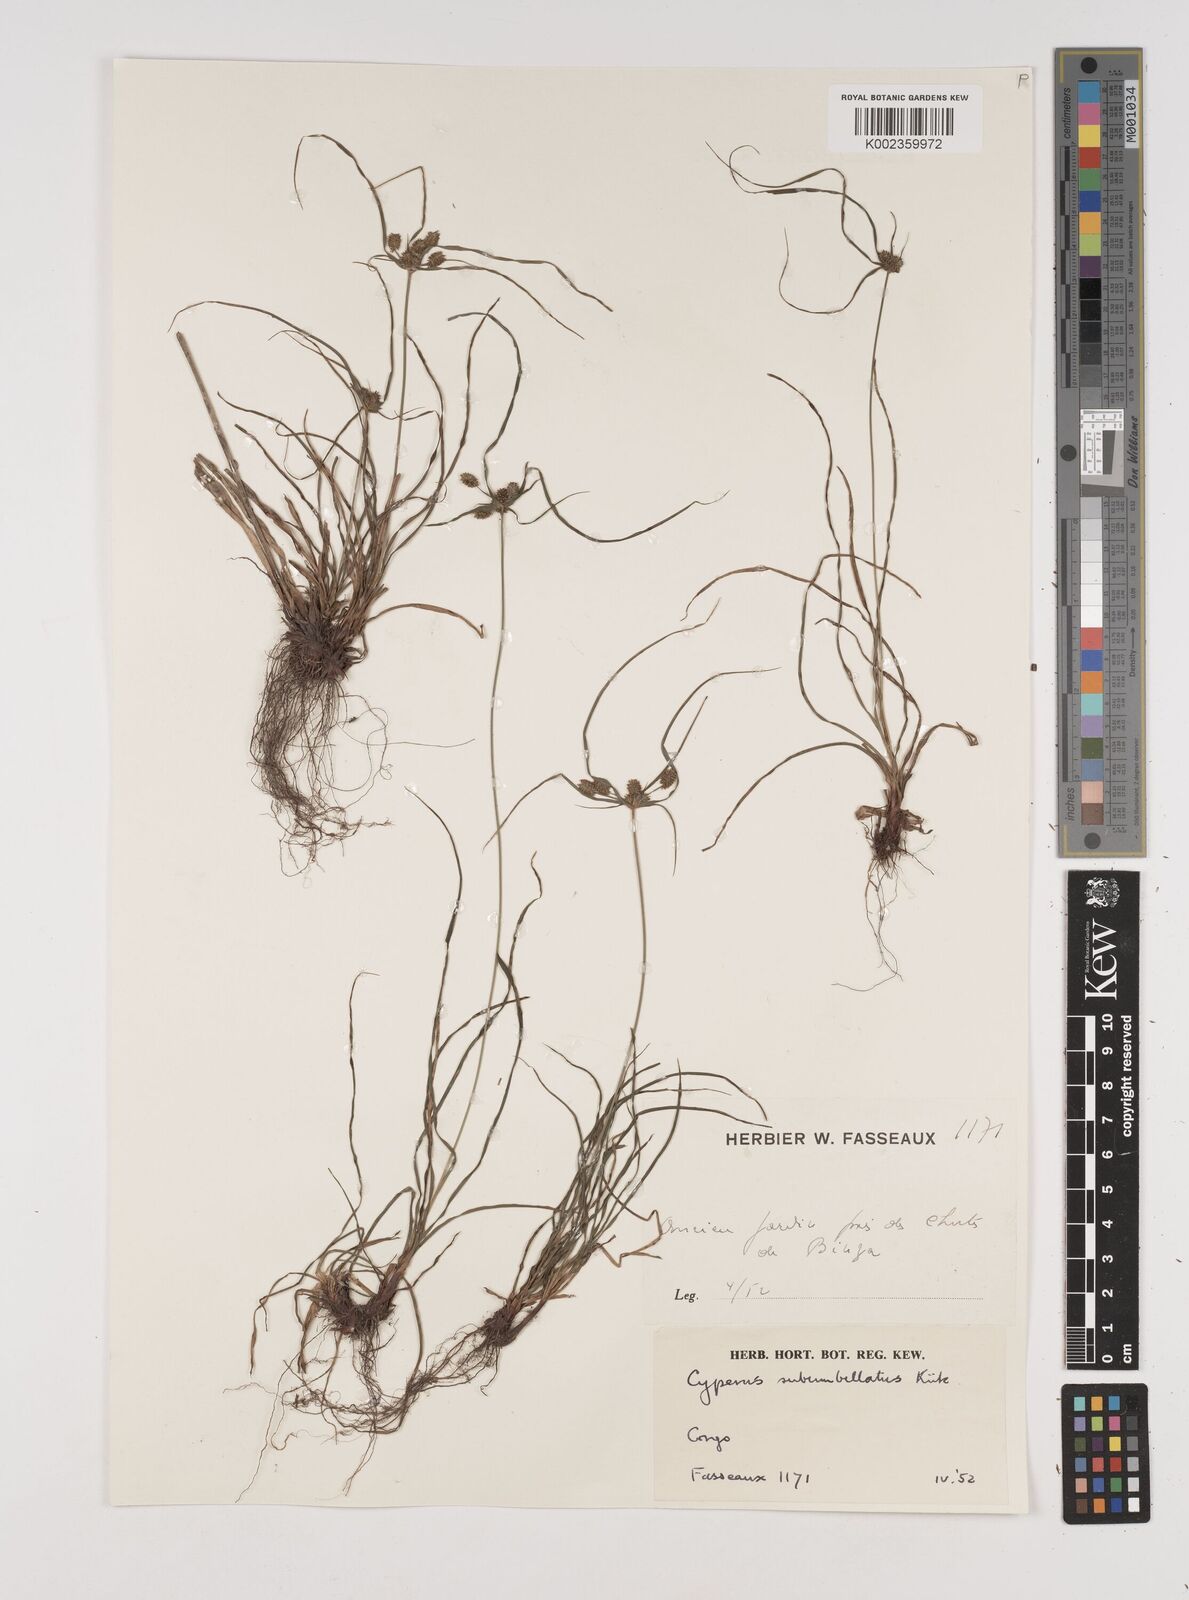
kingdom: Plantae
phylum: Tracheophyta
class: Liliopsida
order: Poales
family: Cyperaceae
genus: Cyperus
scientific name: Cyperus cyperoides
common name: Pacific island flat sedge
